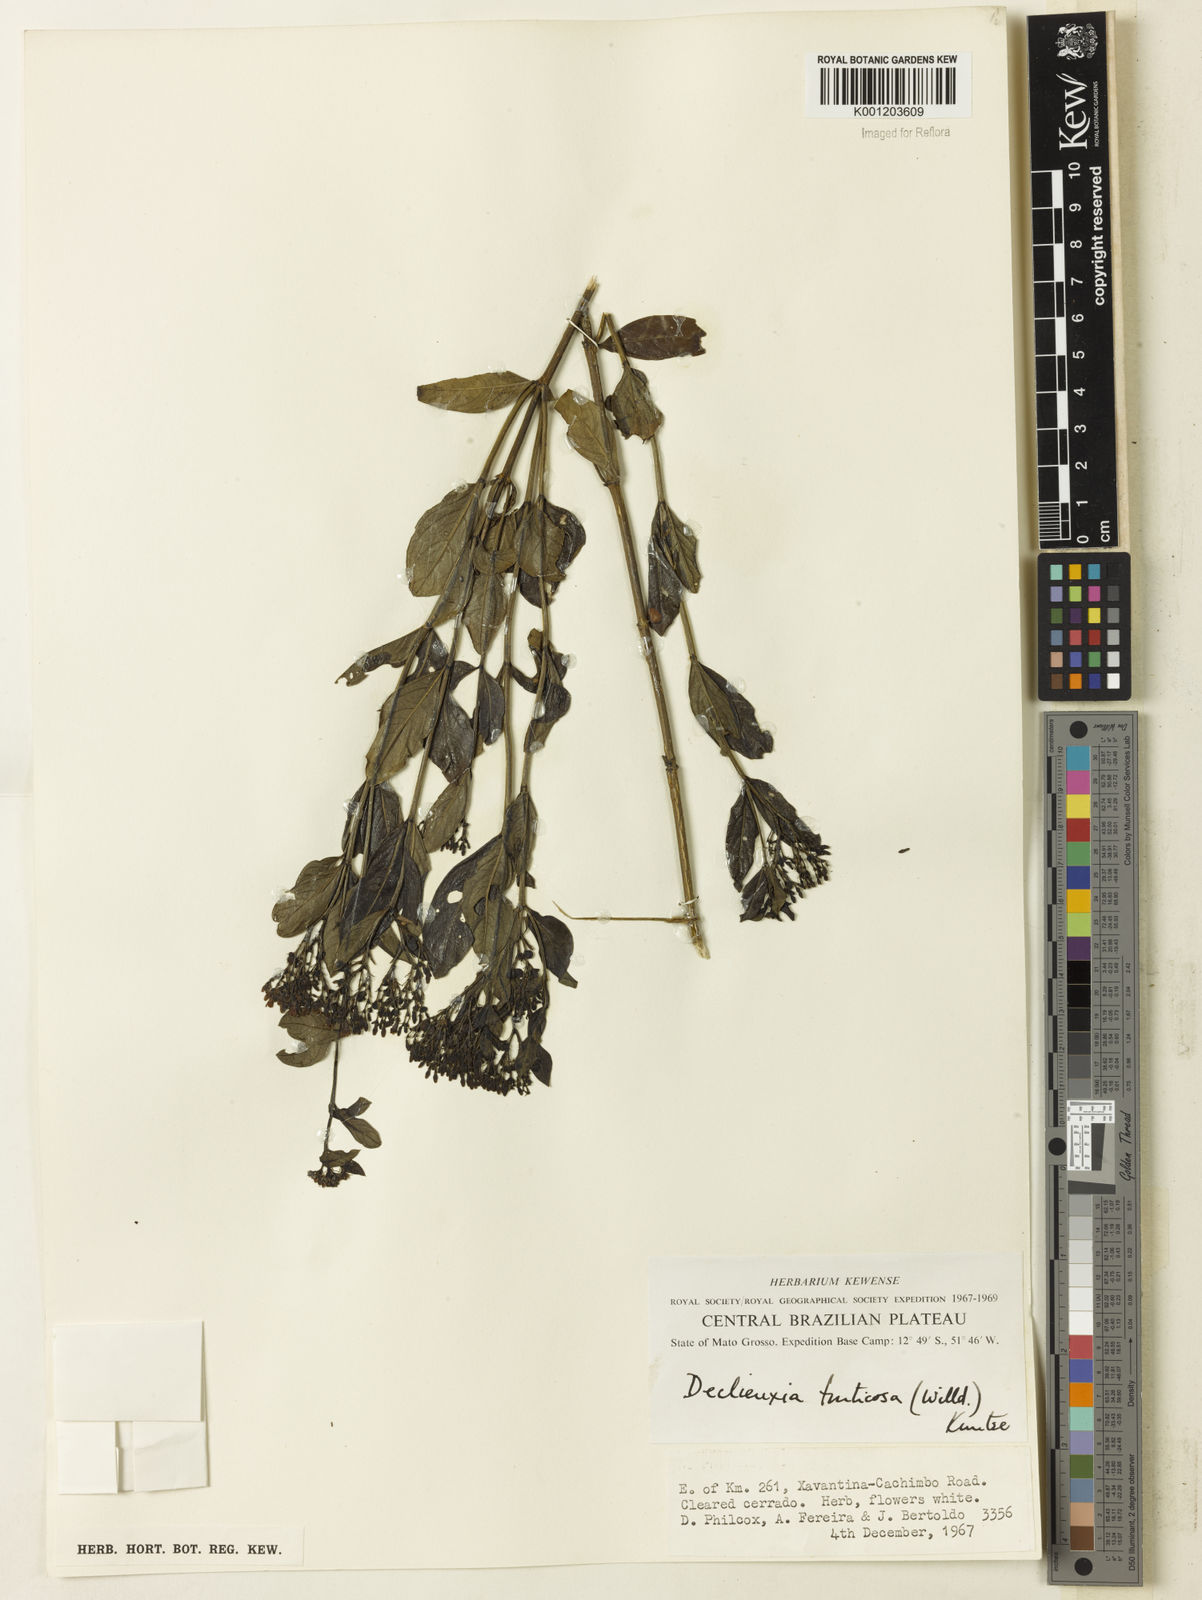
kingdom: Plantae
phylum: Tracheophyta
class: Magnoliopsida
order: Gentianales
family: Rubiaceae
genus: Declieuxia
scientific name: Declieuxia fruticosa
